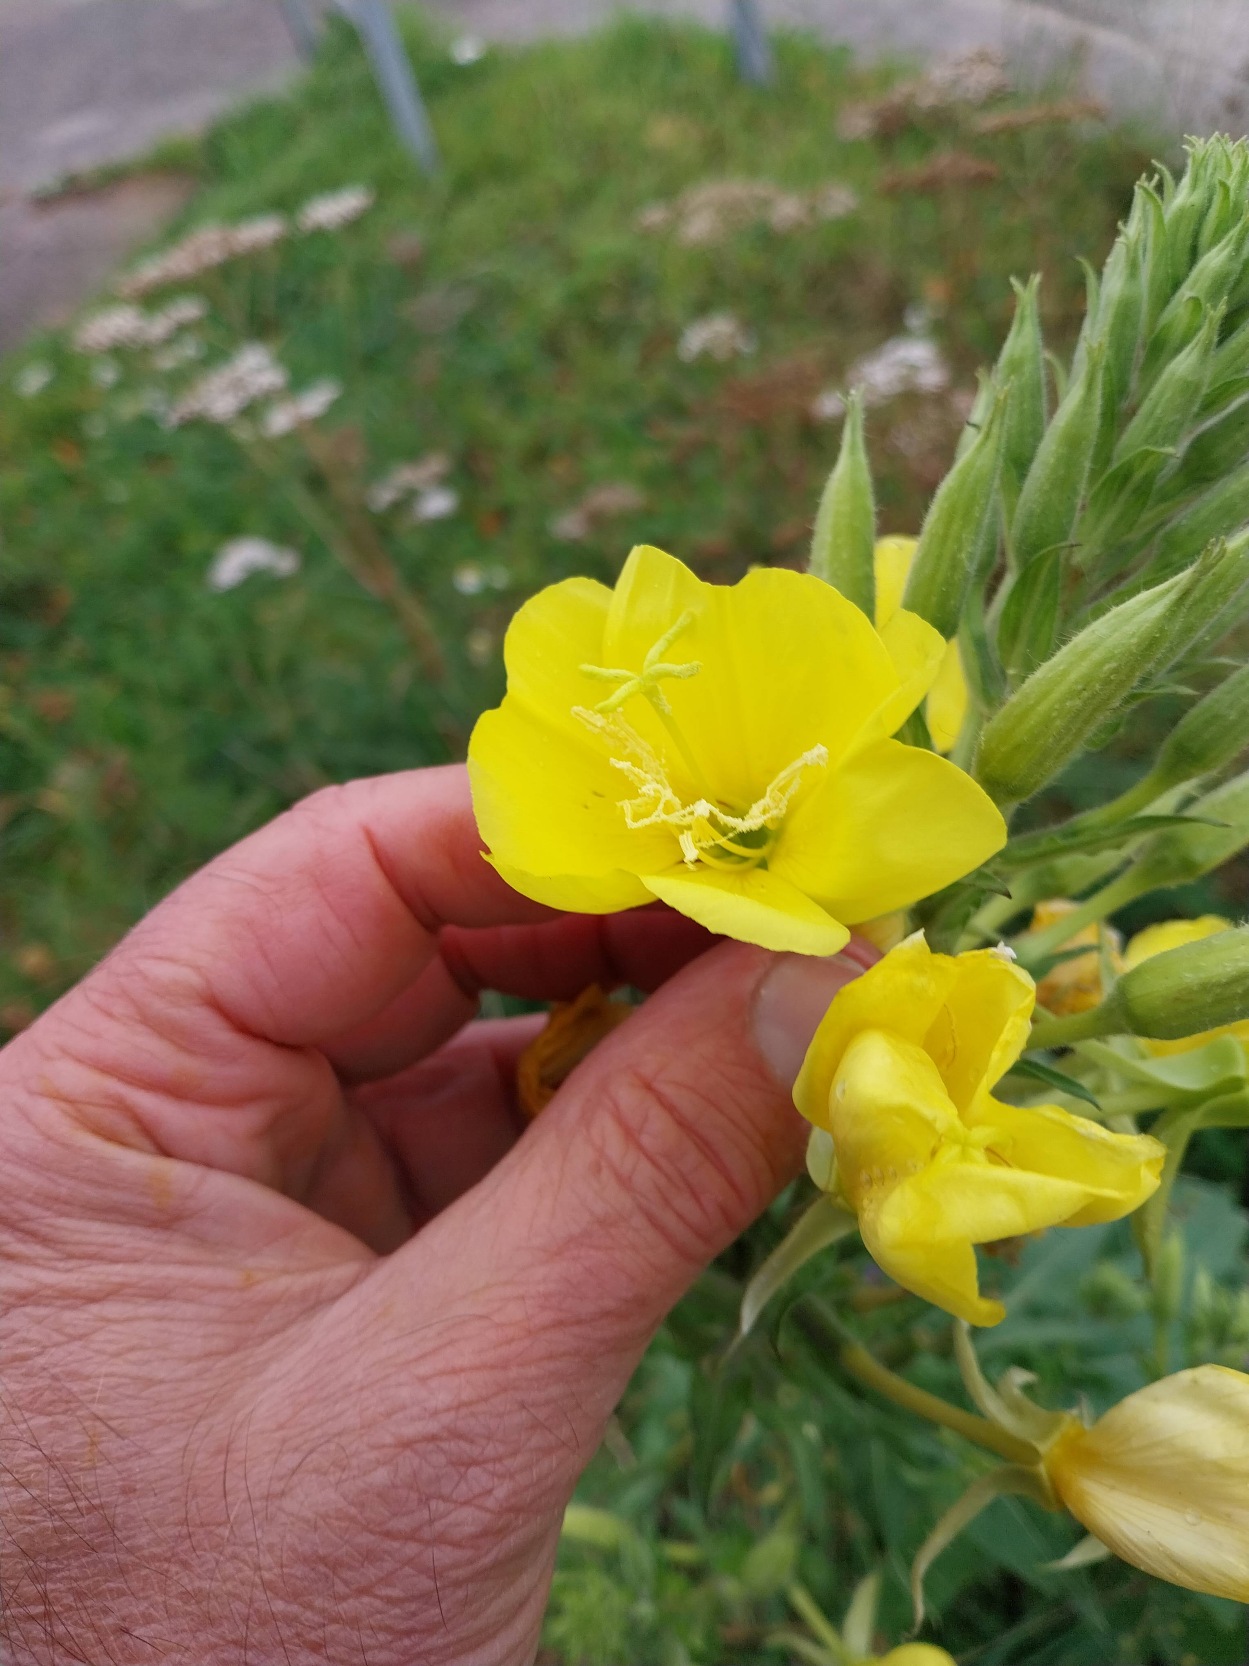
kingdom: Plantae
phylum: Tracheophyta
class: Magnoliopsida
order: Myrtales
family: Onagraceae
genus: Oenothera
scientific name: Oenothera fallax
